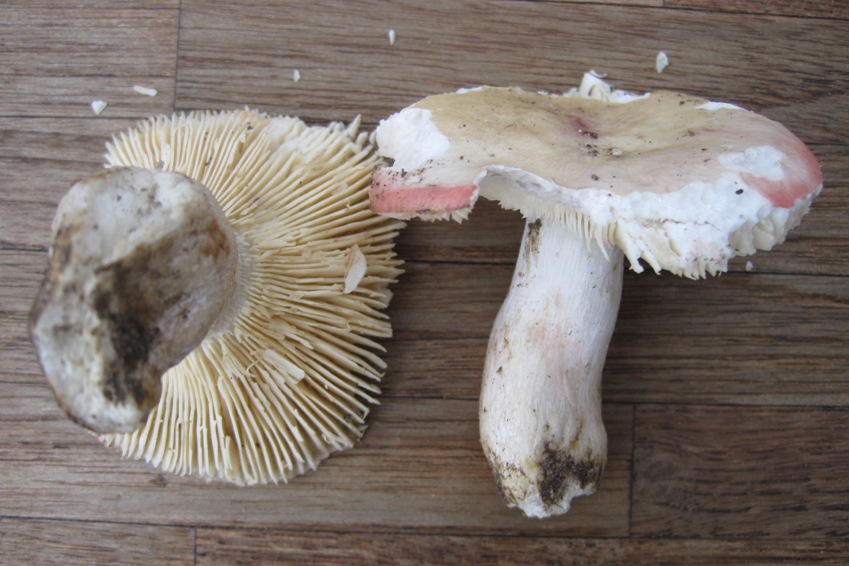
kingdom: Fungi
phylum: Basidiomycota
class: Agaricomycetes
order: Russulales
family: Russulaceae
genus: Russula
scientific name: Russula depallens
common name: falmende skørhat
